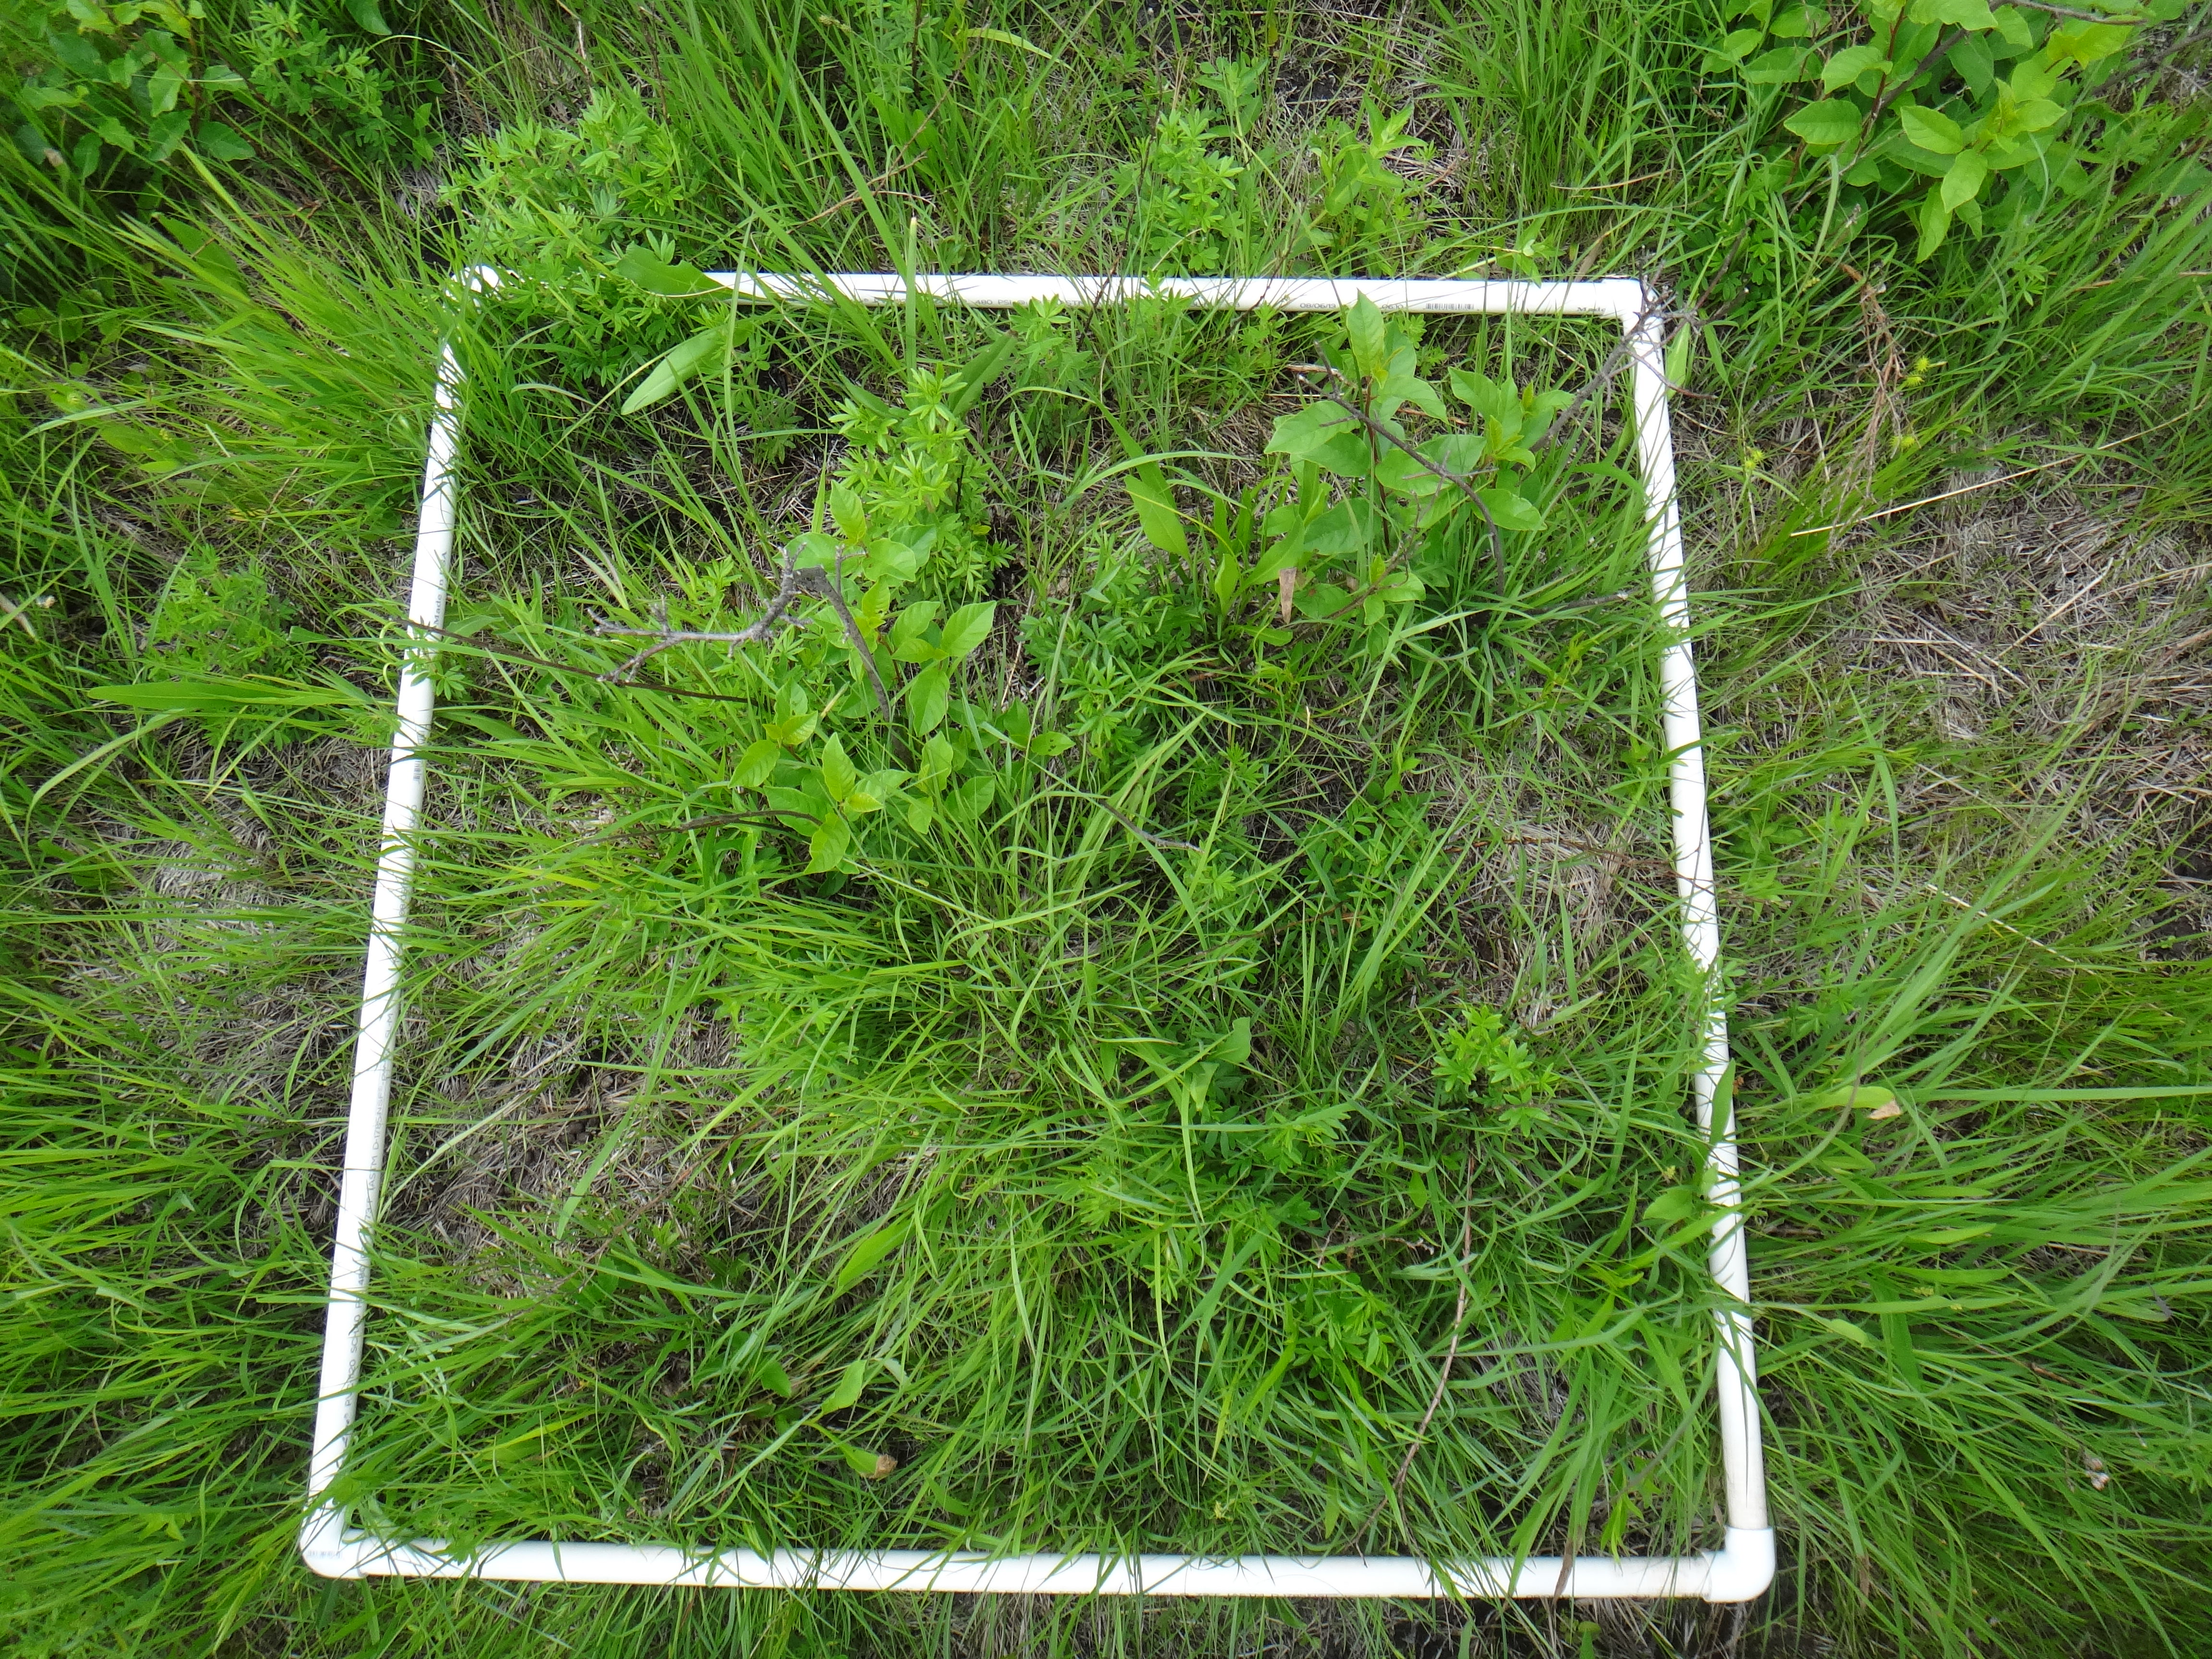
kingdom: Plantae
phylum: Tracheophyta
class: Liliopsida
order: Poales
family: Cyperaceae
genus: Carex
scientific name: Carex buxbaumii
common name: Club sedge
